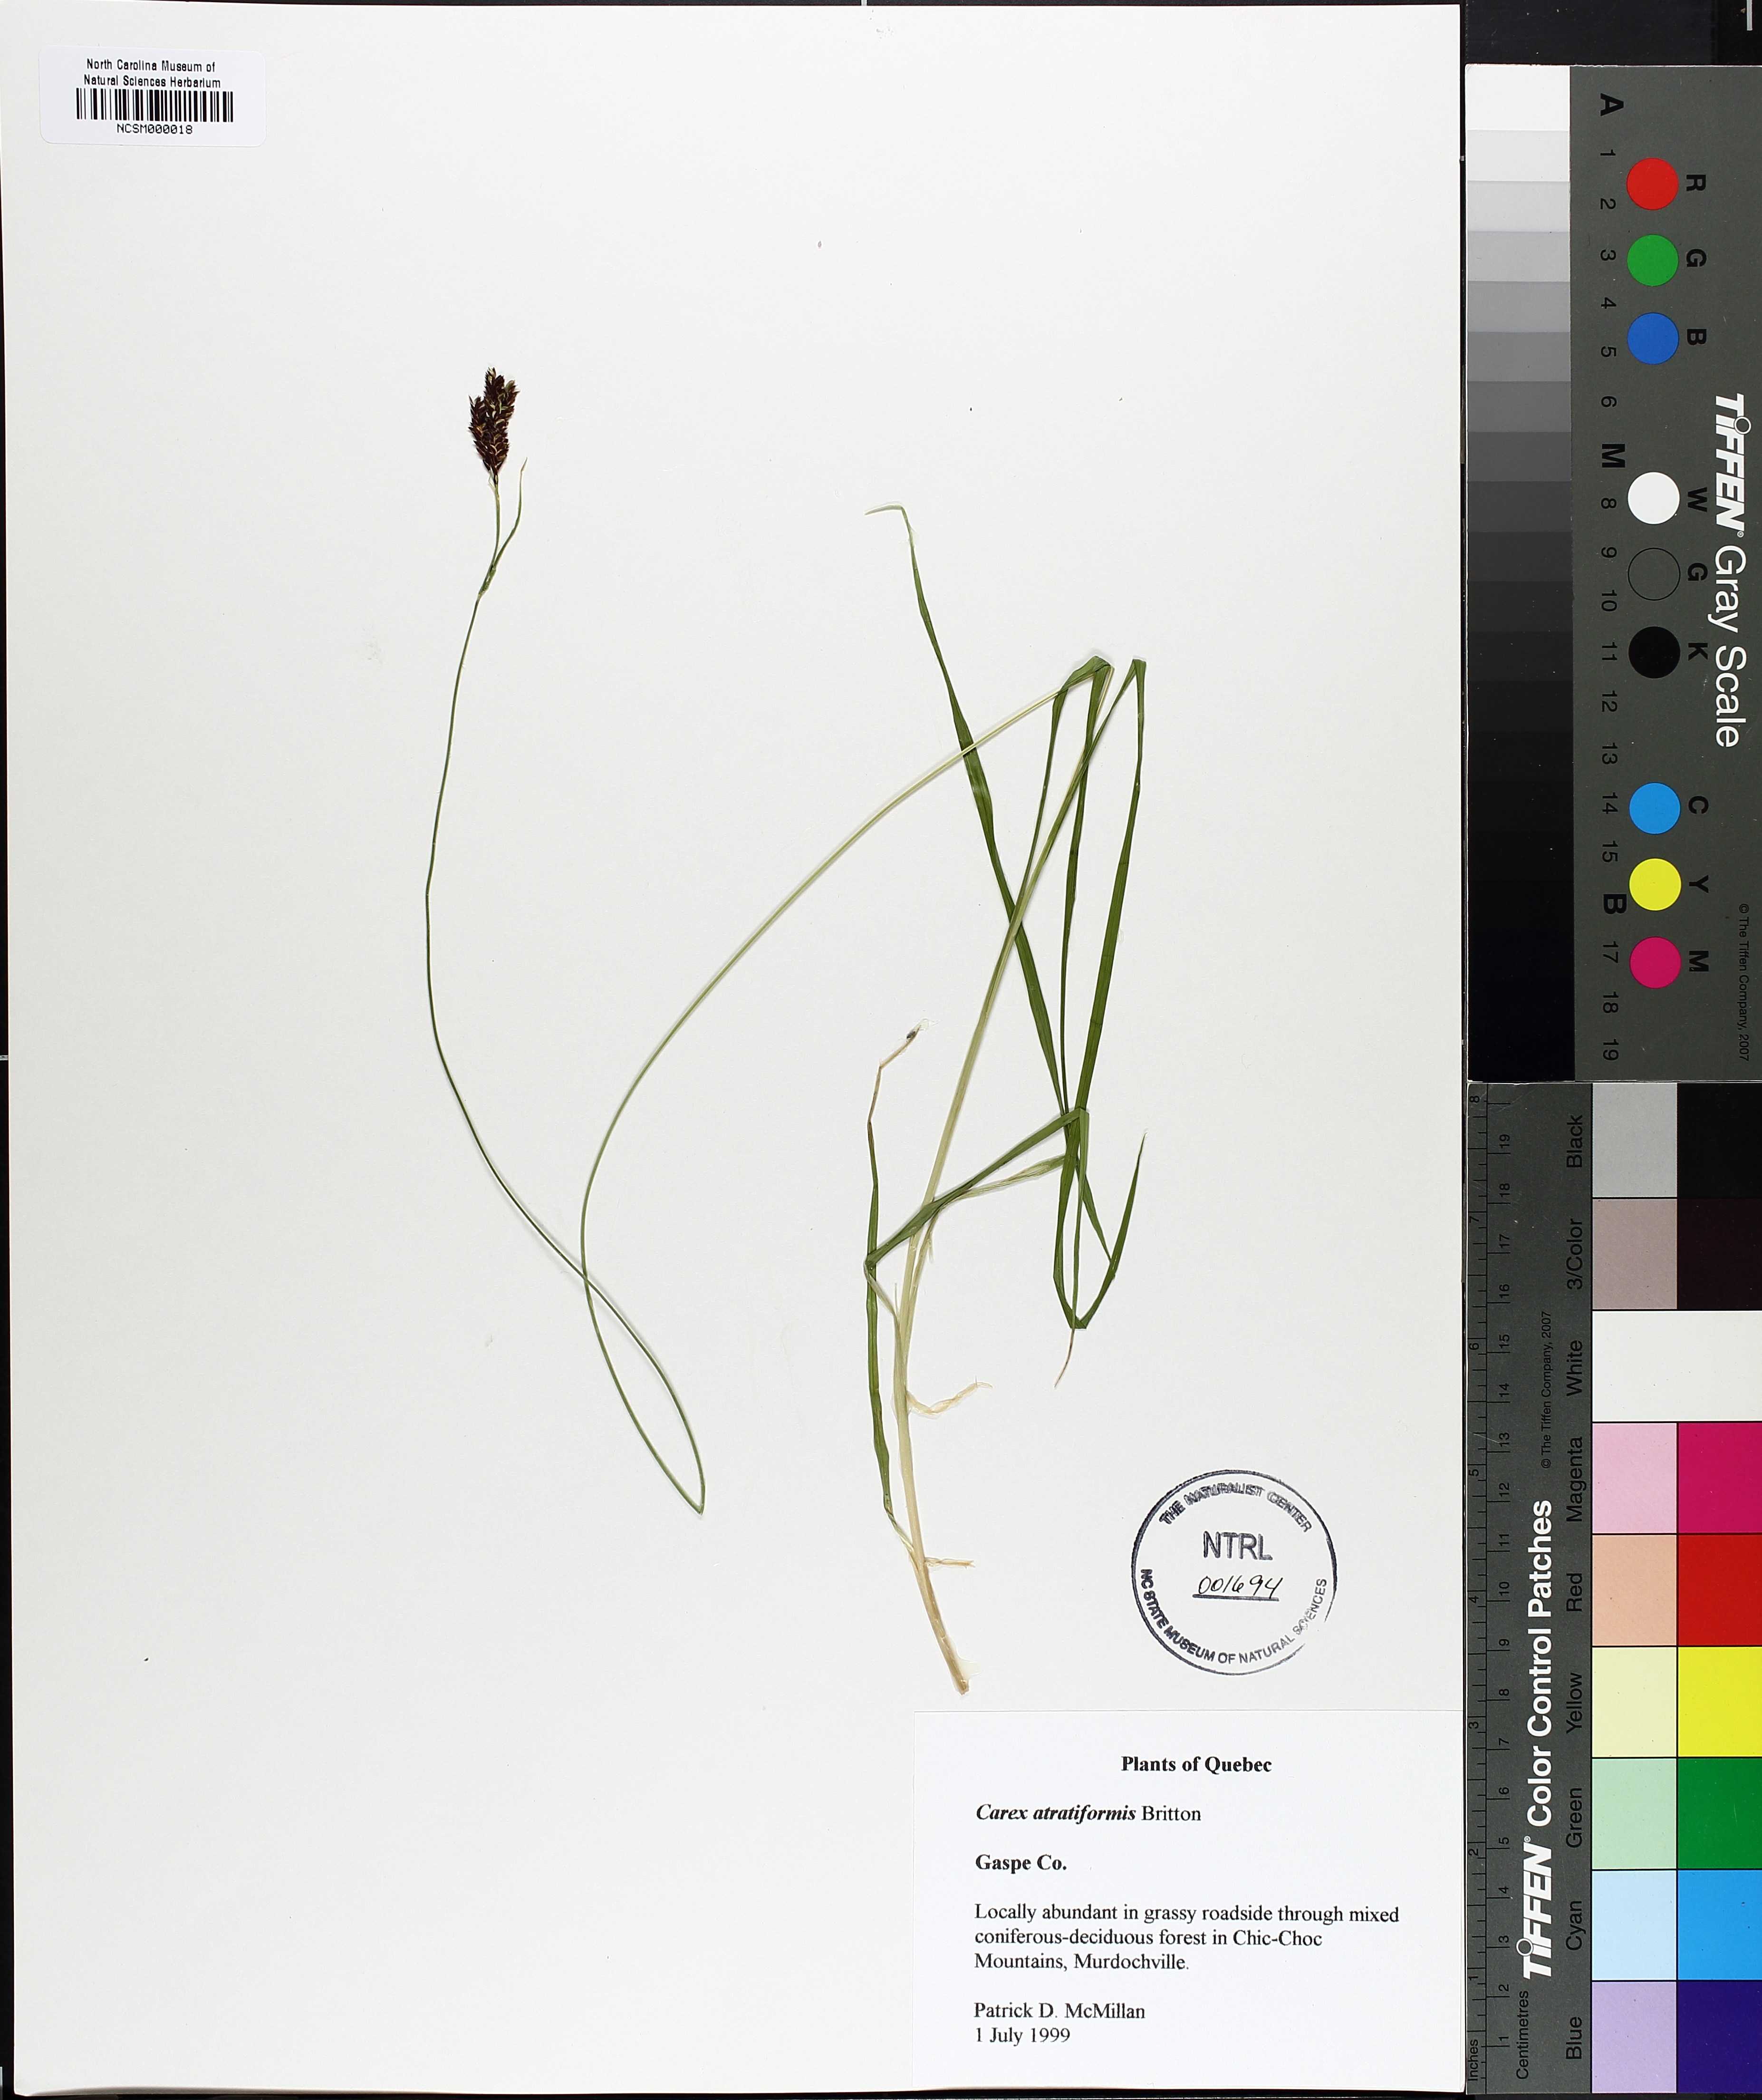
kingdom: Plantae
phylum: Tracheophyta
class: Liliopsida
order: Poales
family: Cyperaceae
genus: Carex
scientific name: Carex atratiformis
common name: Black sedge
